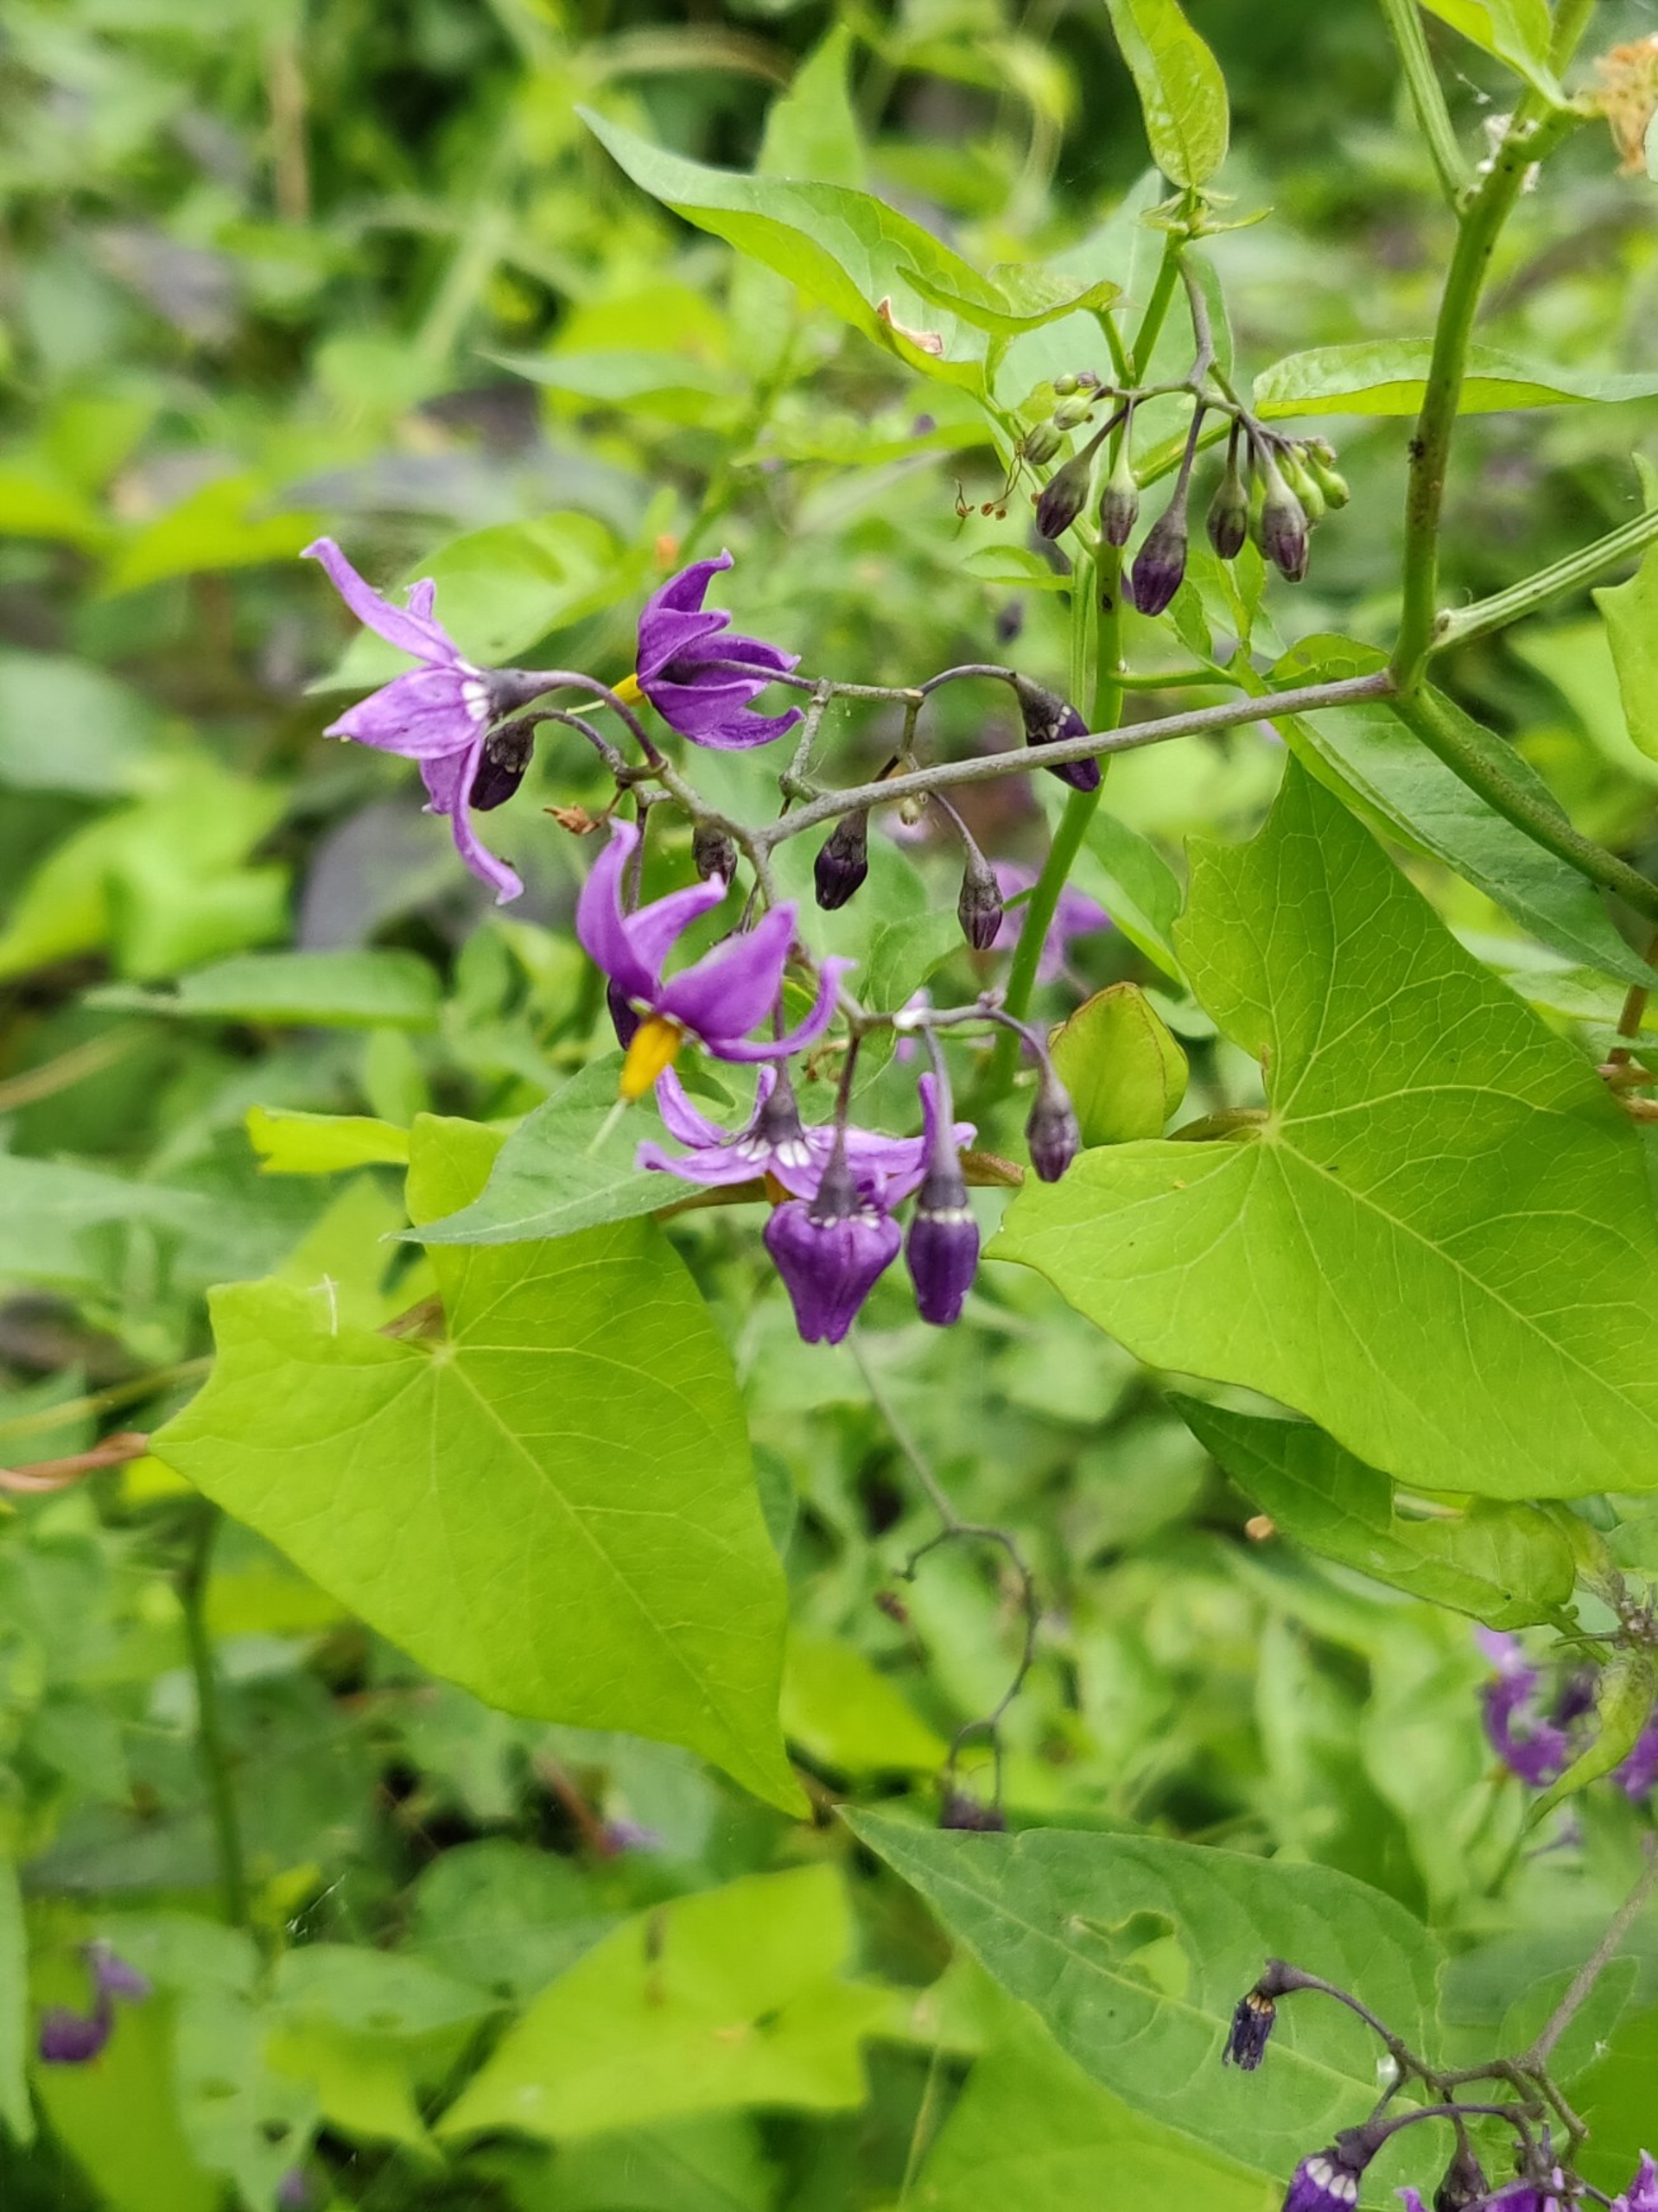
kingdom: Plantae
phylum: Tracheophyta
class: Magnoliopsida
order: Solanales
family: Solanaceae
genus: Solanum
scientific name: Solanum dulcamara
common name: Bittersød natskygge
